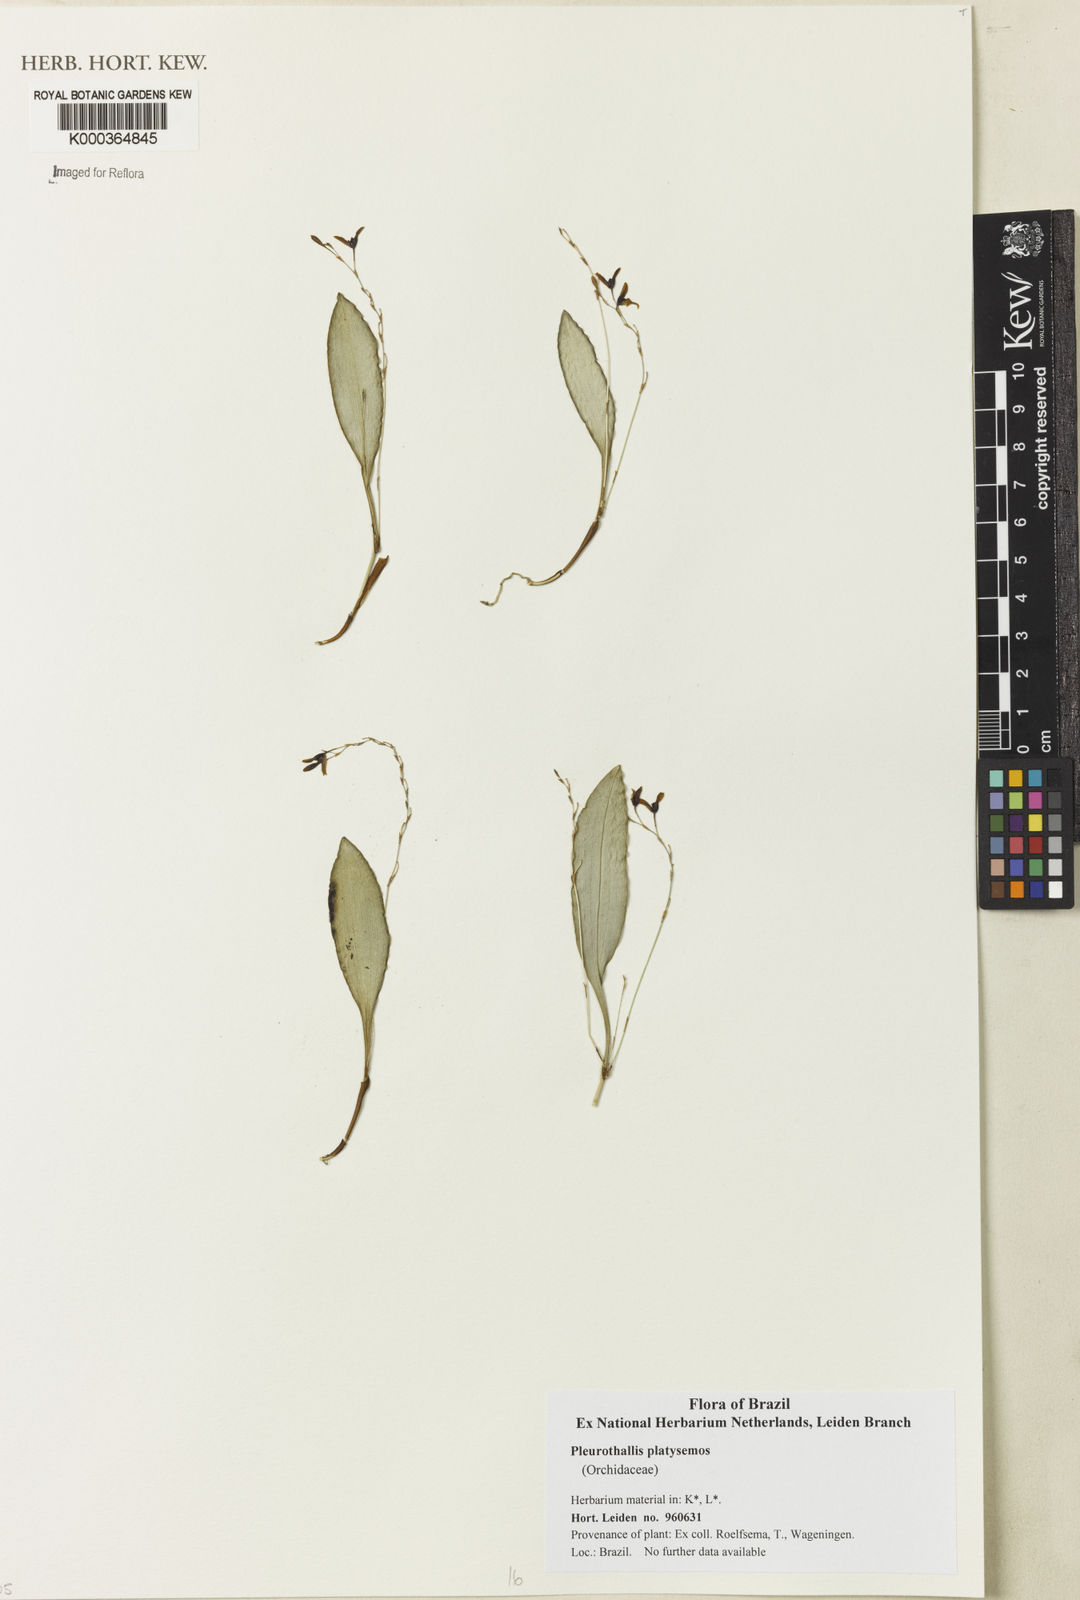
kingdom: Plantae
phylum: Tracheophyta
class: Liliopsida
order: Asparagales
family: Orchidaceae
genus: Pleurothallis
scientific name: Pleurothallis platysemos
